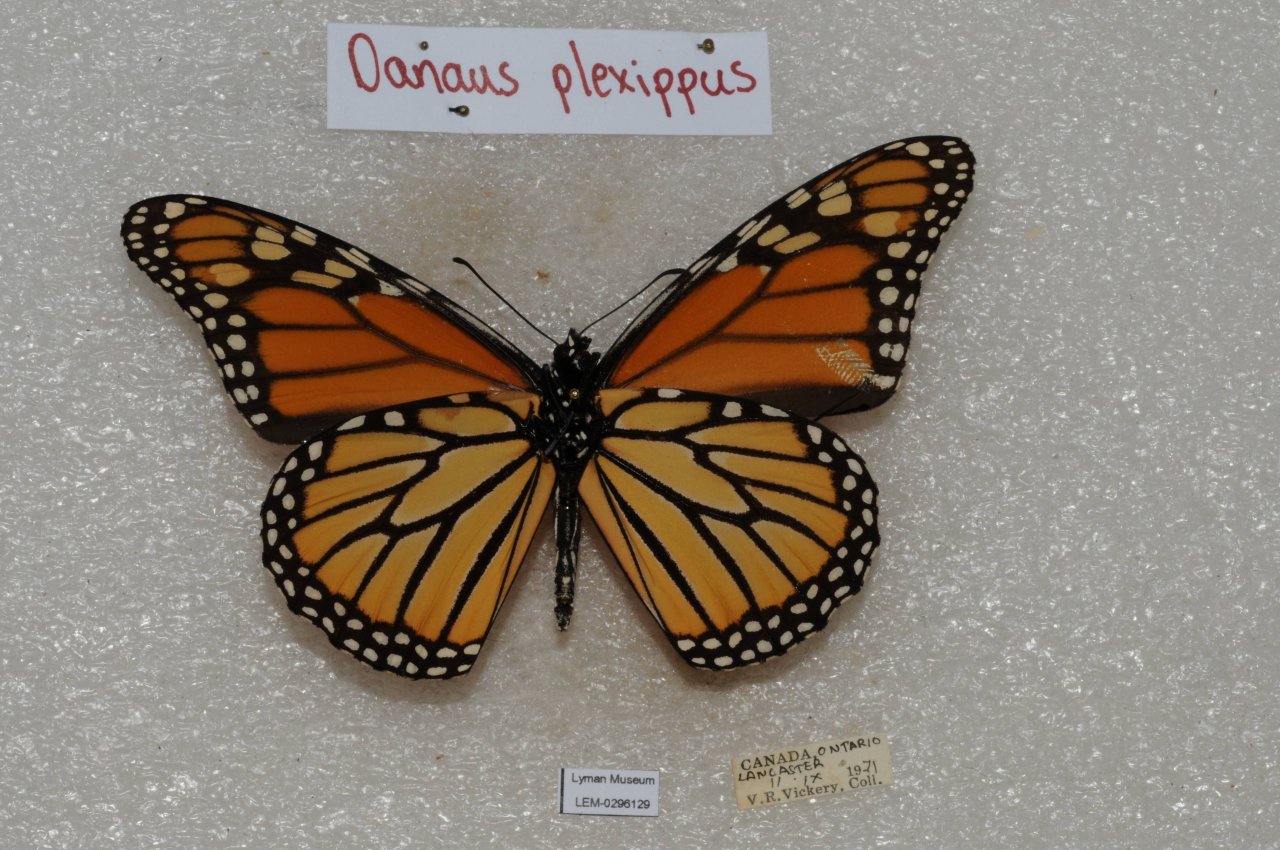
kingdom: Animalia
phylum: Arthropoda
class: Insecta
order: Lepidoptera
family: Nymphalidae
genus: Danaus
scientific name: Danaus plexippus
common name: Monarch
